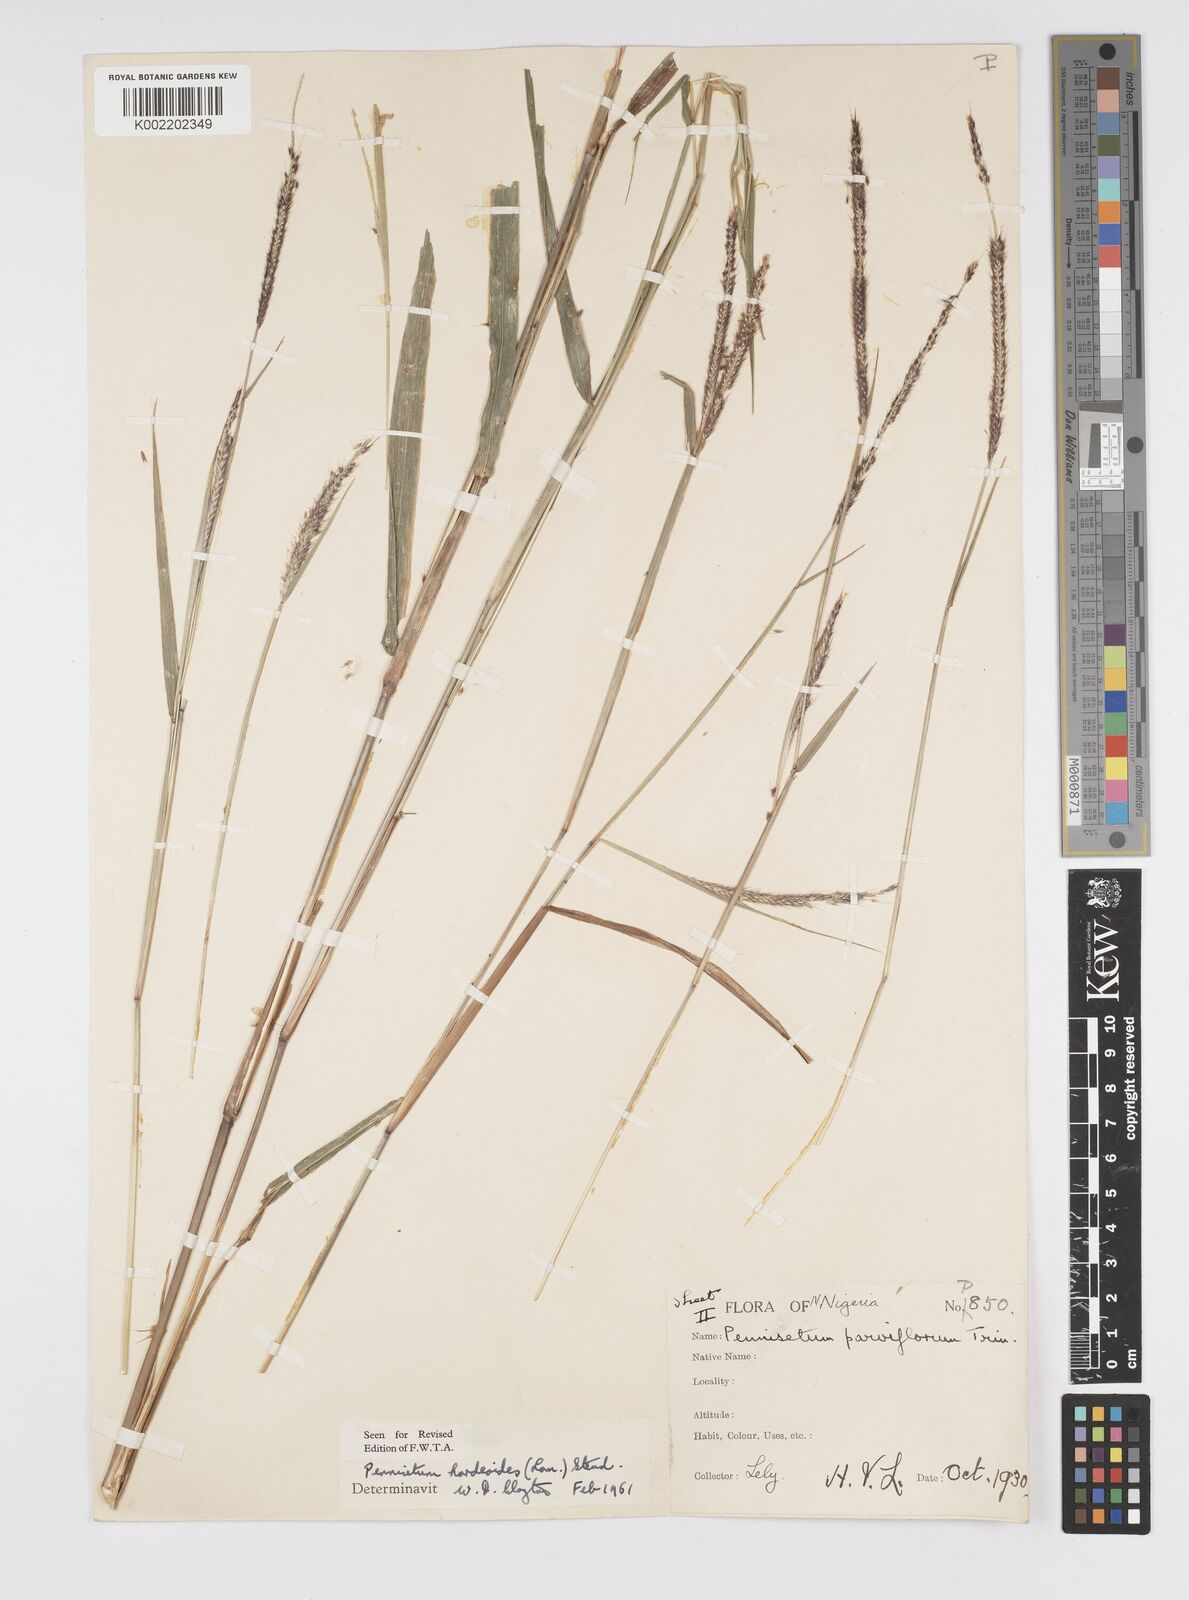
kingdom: Plantae
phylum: Tracheophyta
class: Liliopsida
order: Poales
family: Poaceae
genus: Cenchrus
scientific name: Cenchrus Pennisetum spec
